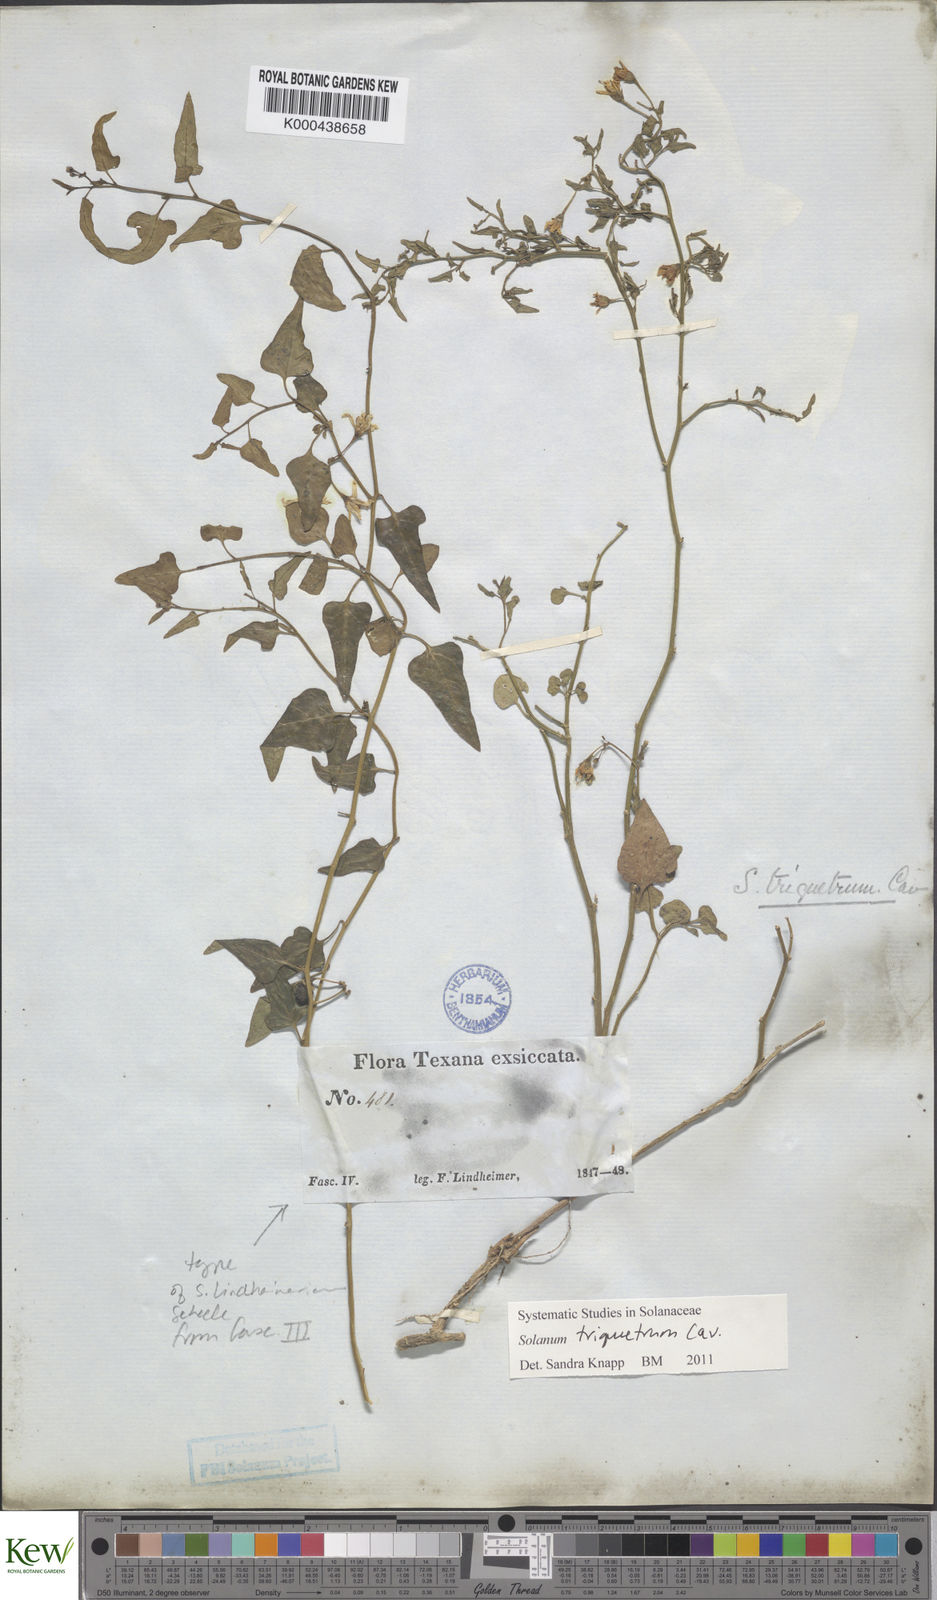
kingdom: Plantae
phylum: Tracheophyta
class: Magnoliopsida
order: Solanales
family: Solanaceae
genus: Solanum
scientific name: Solanum triquetrum
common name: Texas nightshade
